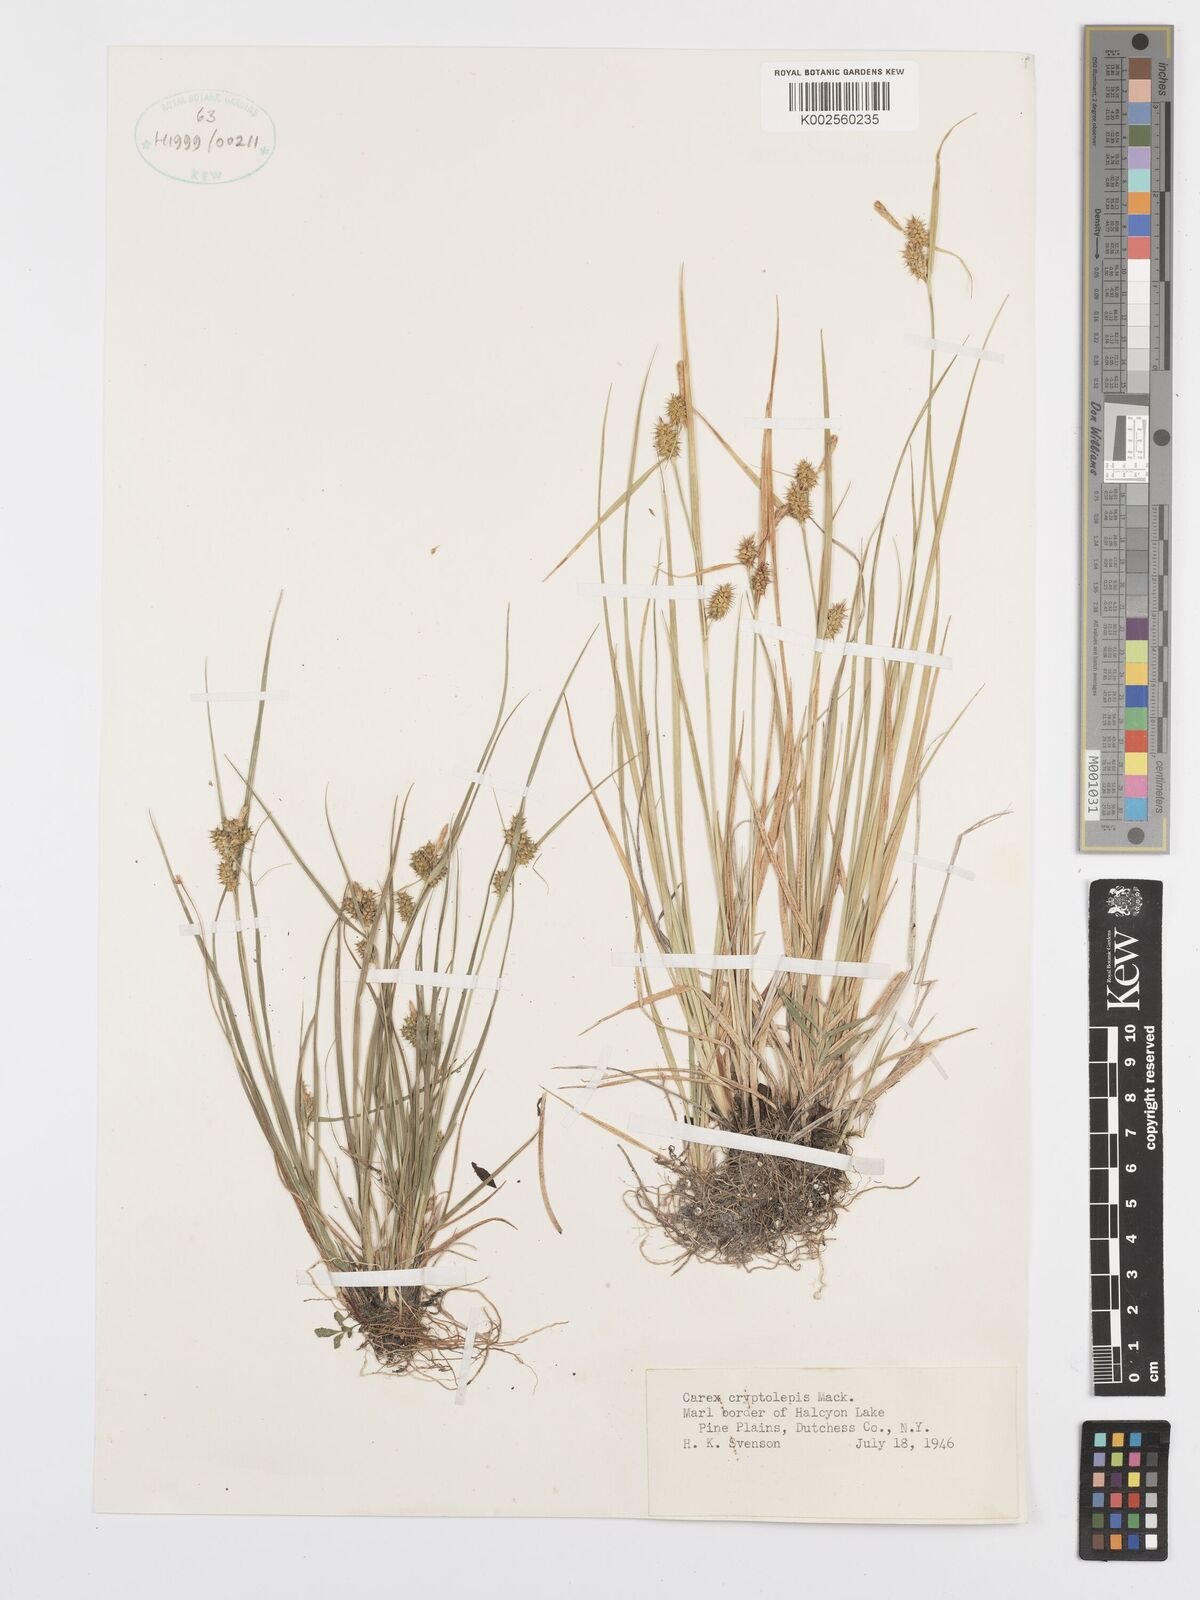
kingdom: Plantae
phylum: Tracheophyta
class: Liliopsida
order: Poales
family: Cyperaceae
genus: Carex
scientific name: Carex cryptolepis
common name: Northeastern sedge
